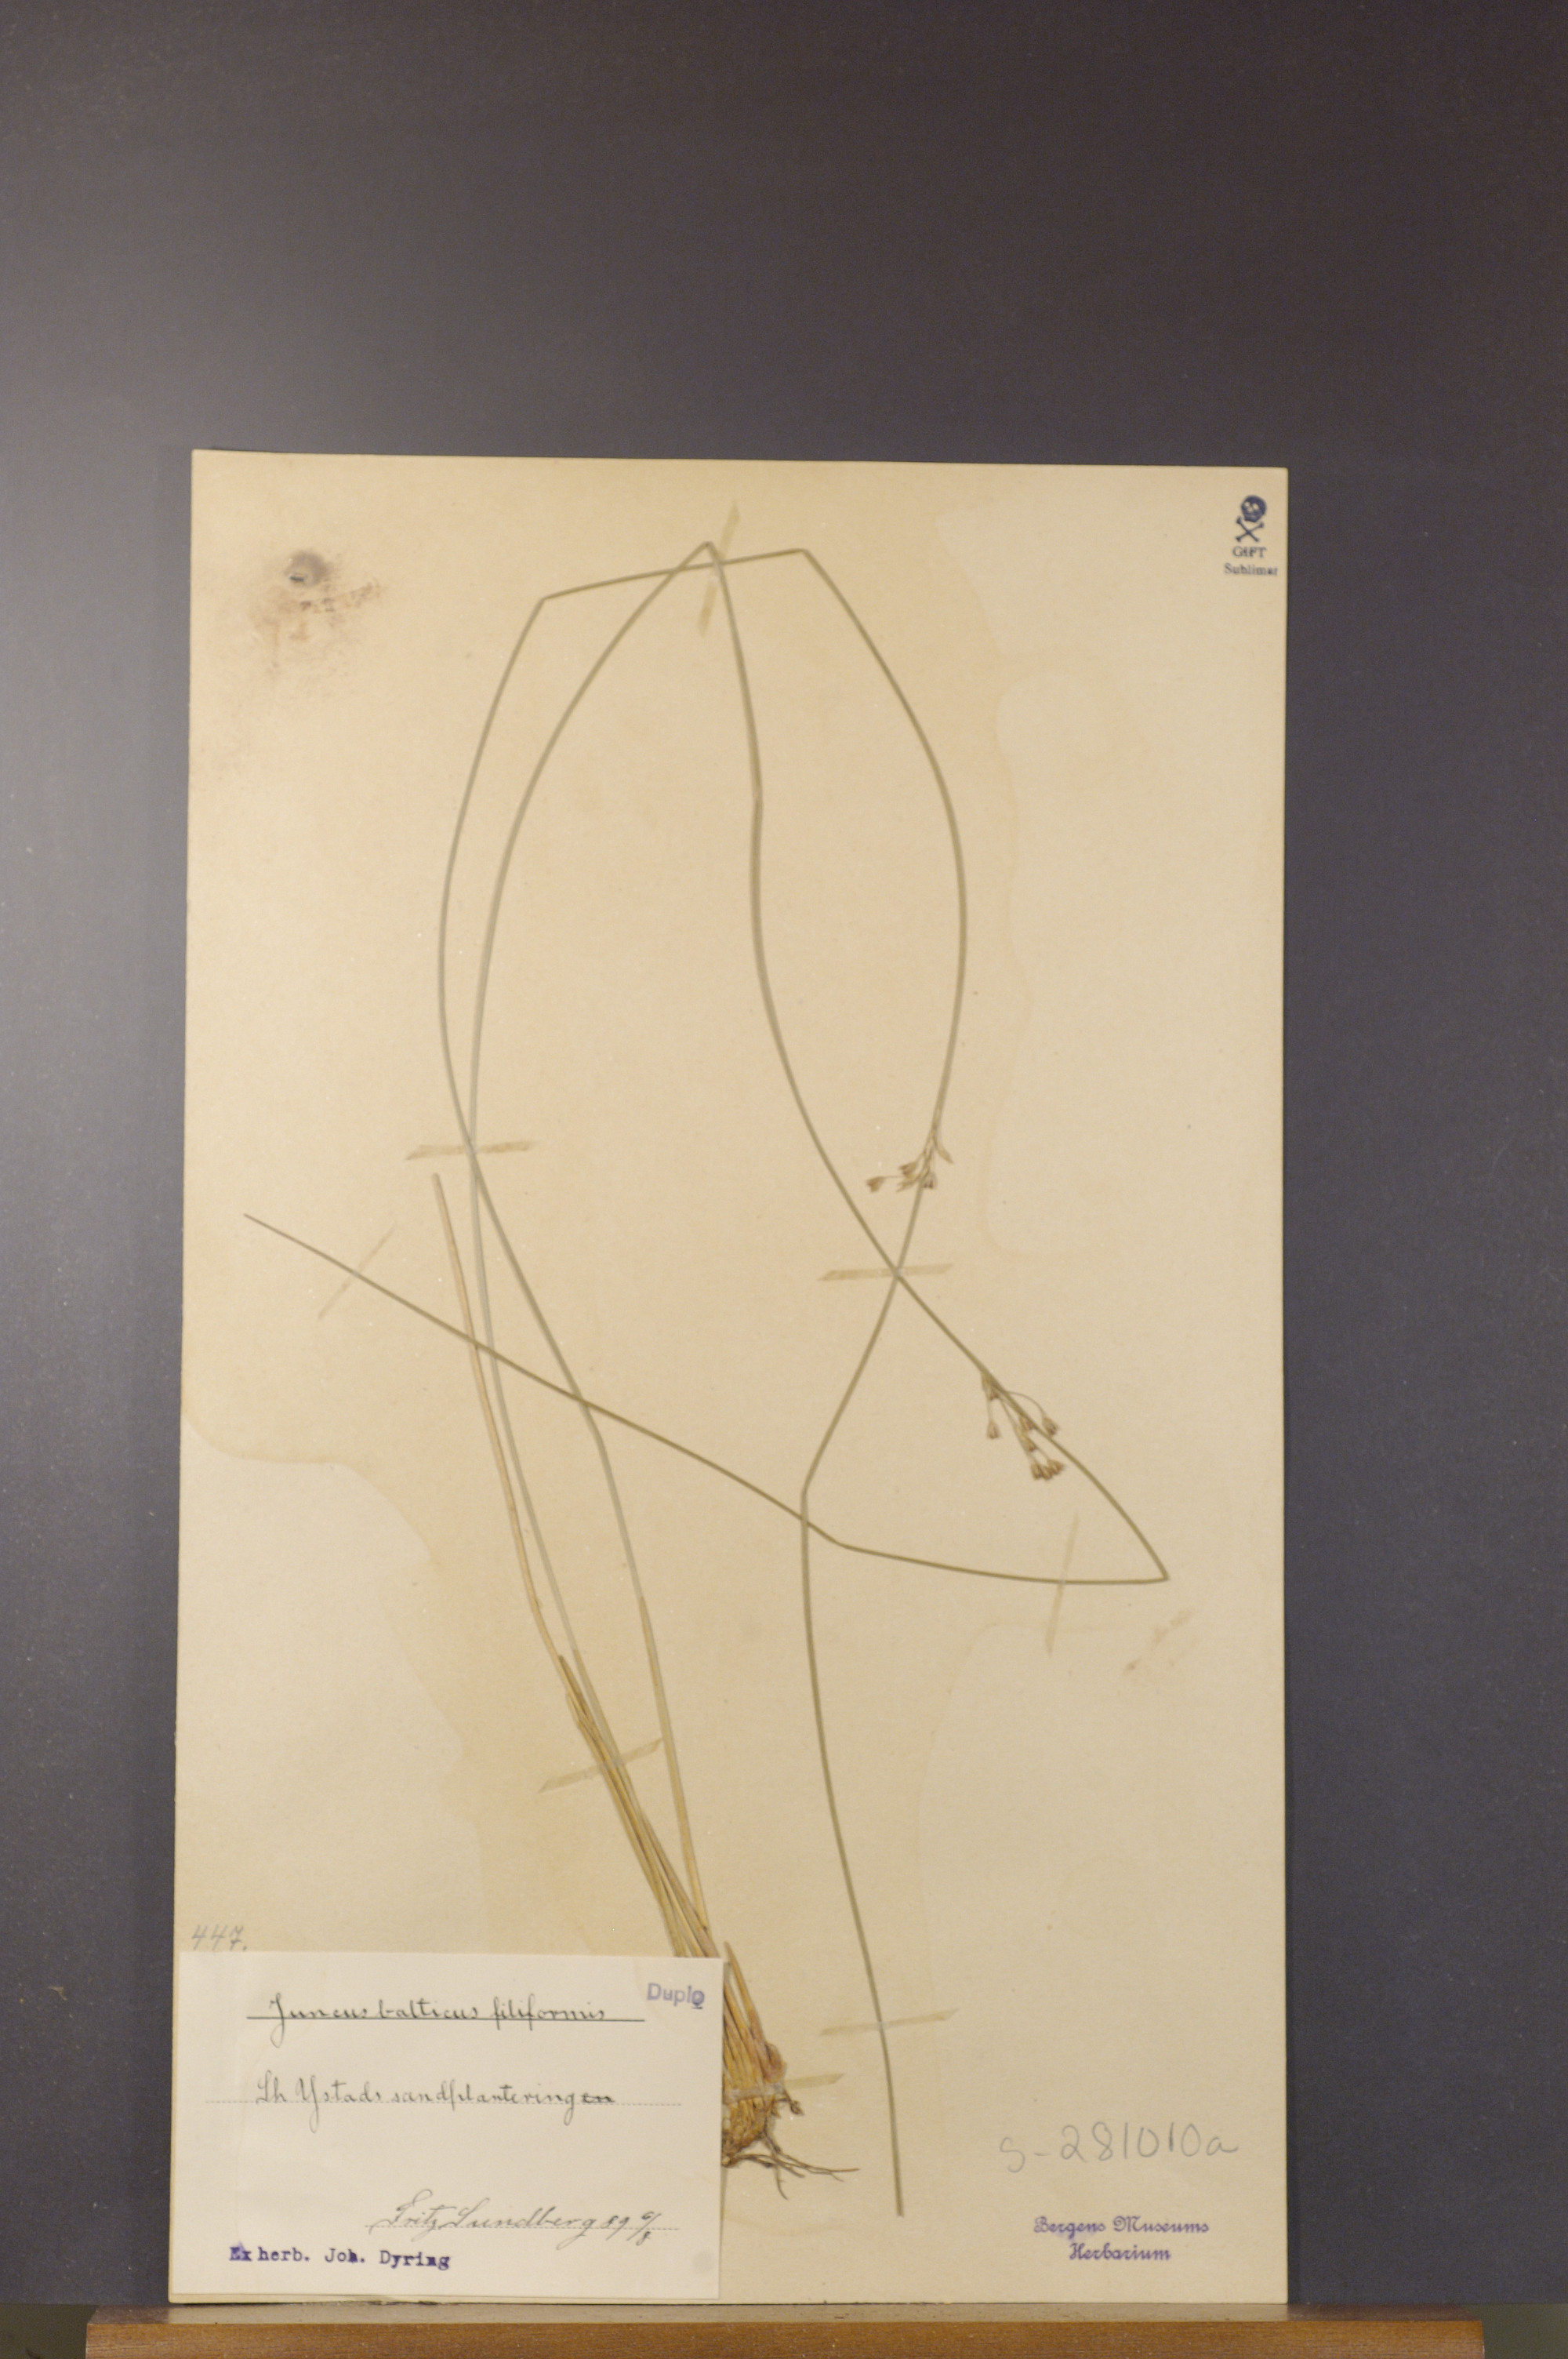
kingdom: Plantae
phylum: Tracheophyta
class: Liliopsida
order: Poales
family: Juncaceae
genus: Juncus
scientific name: Juncus balticus
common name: Baltic rush
